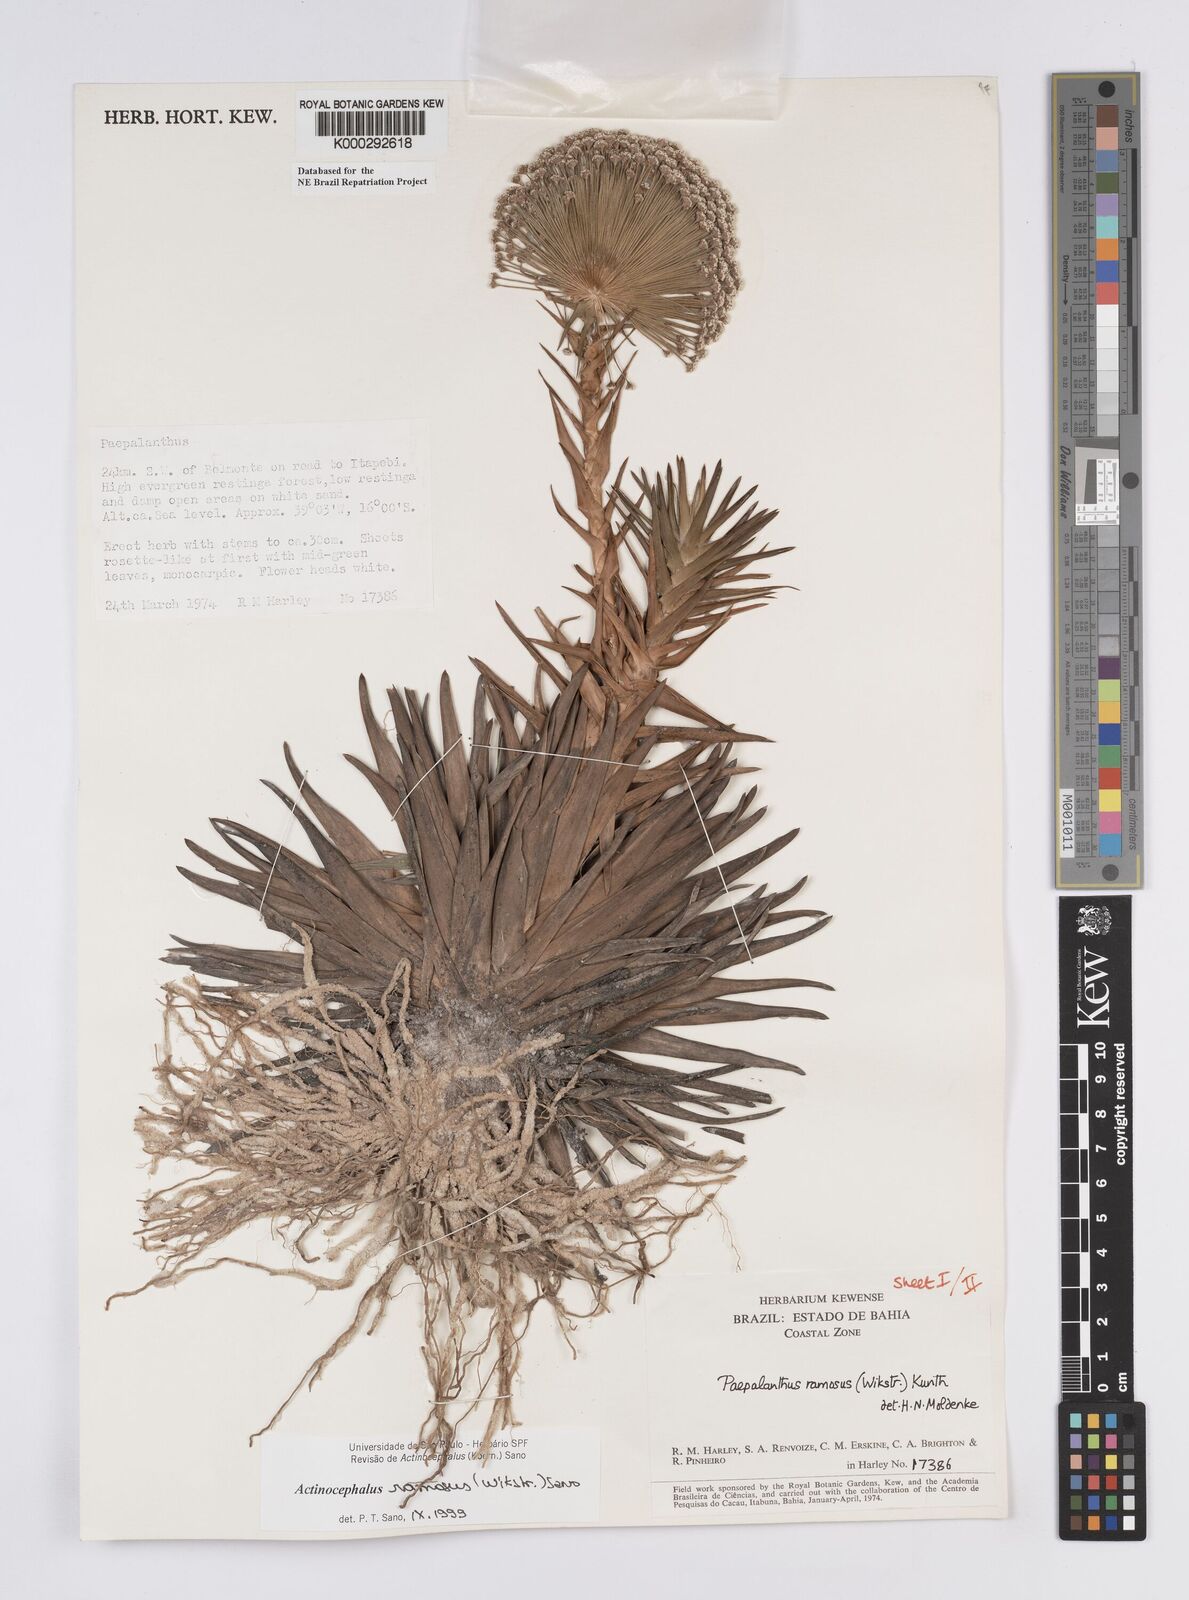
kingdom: Plantae
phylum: Tracheophyta
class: Liliopsida
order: Poales
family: Eriocaulaceae
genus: Paepalanthus
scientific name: Paepalanthus ramosus
